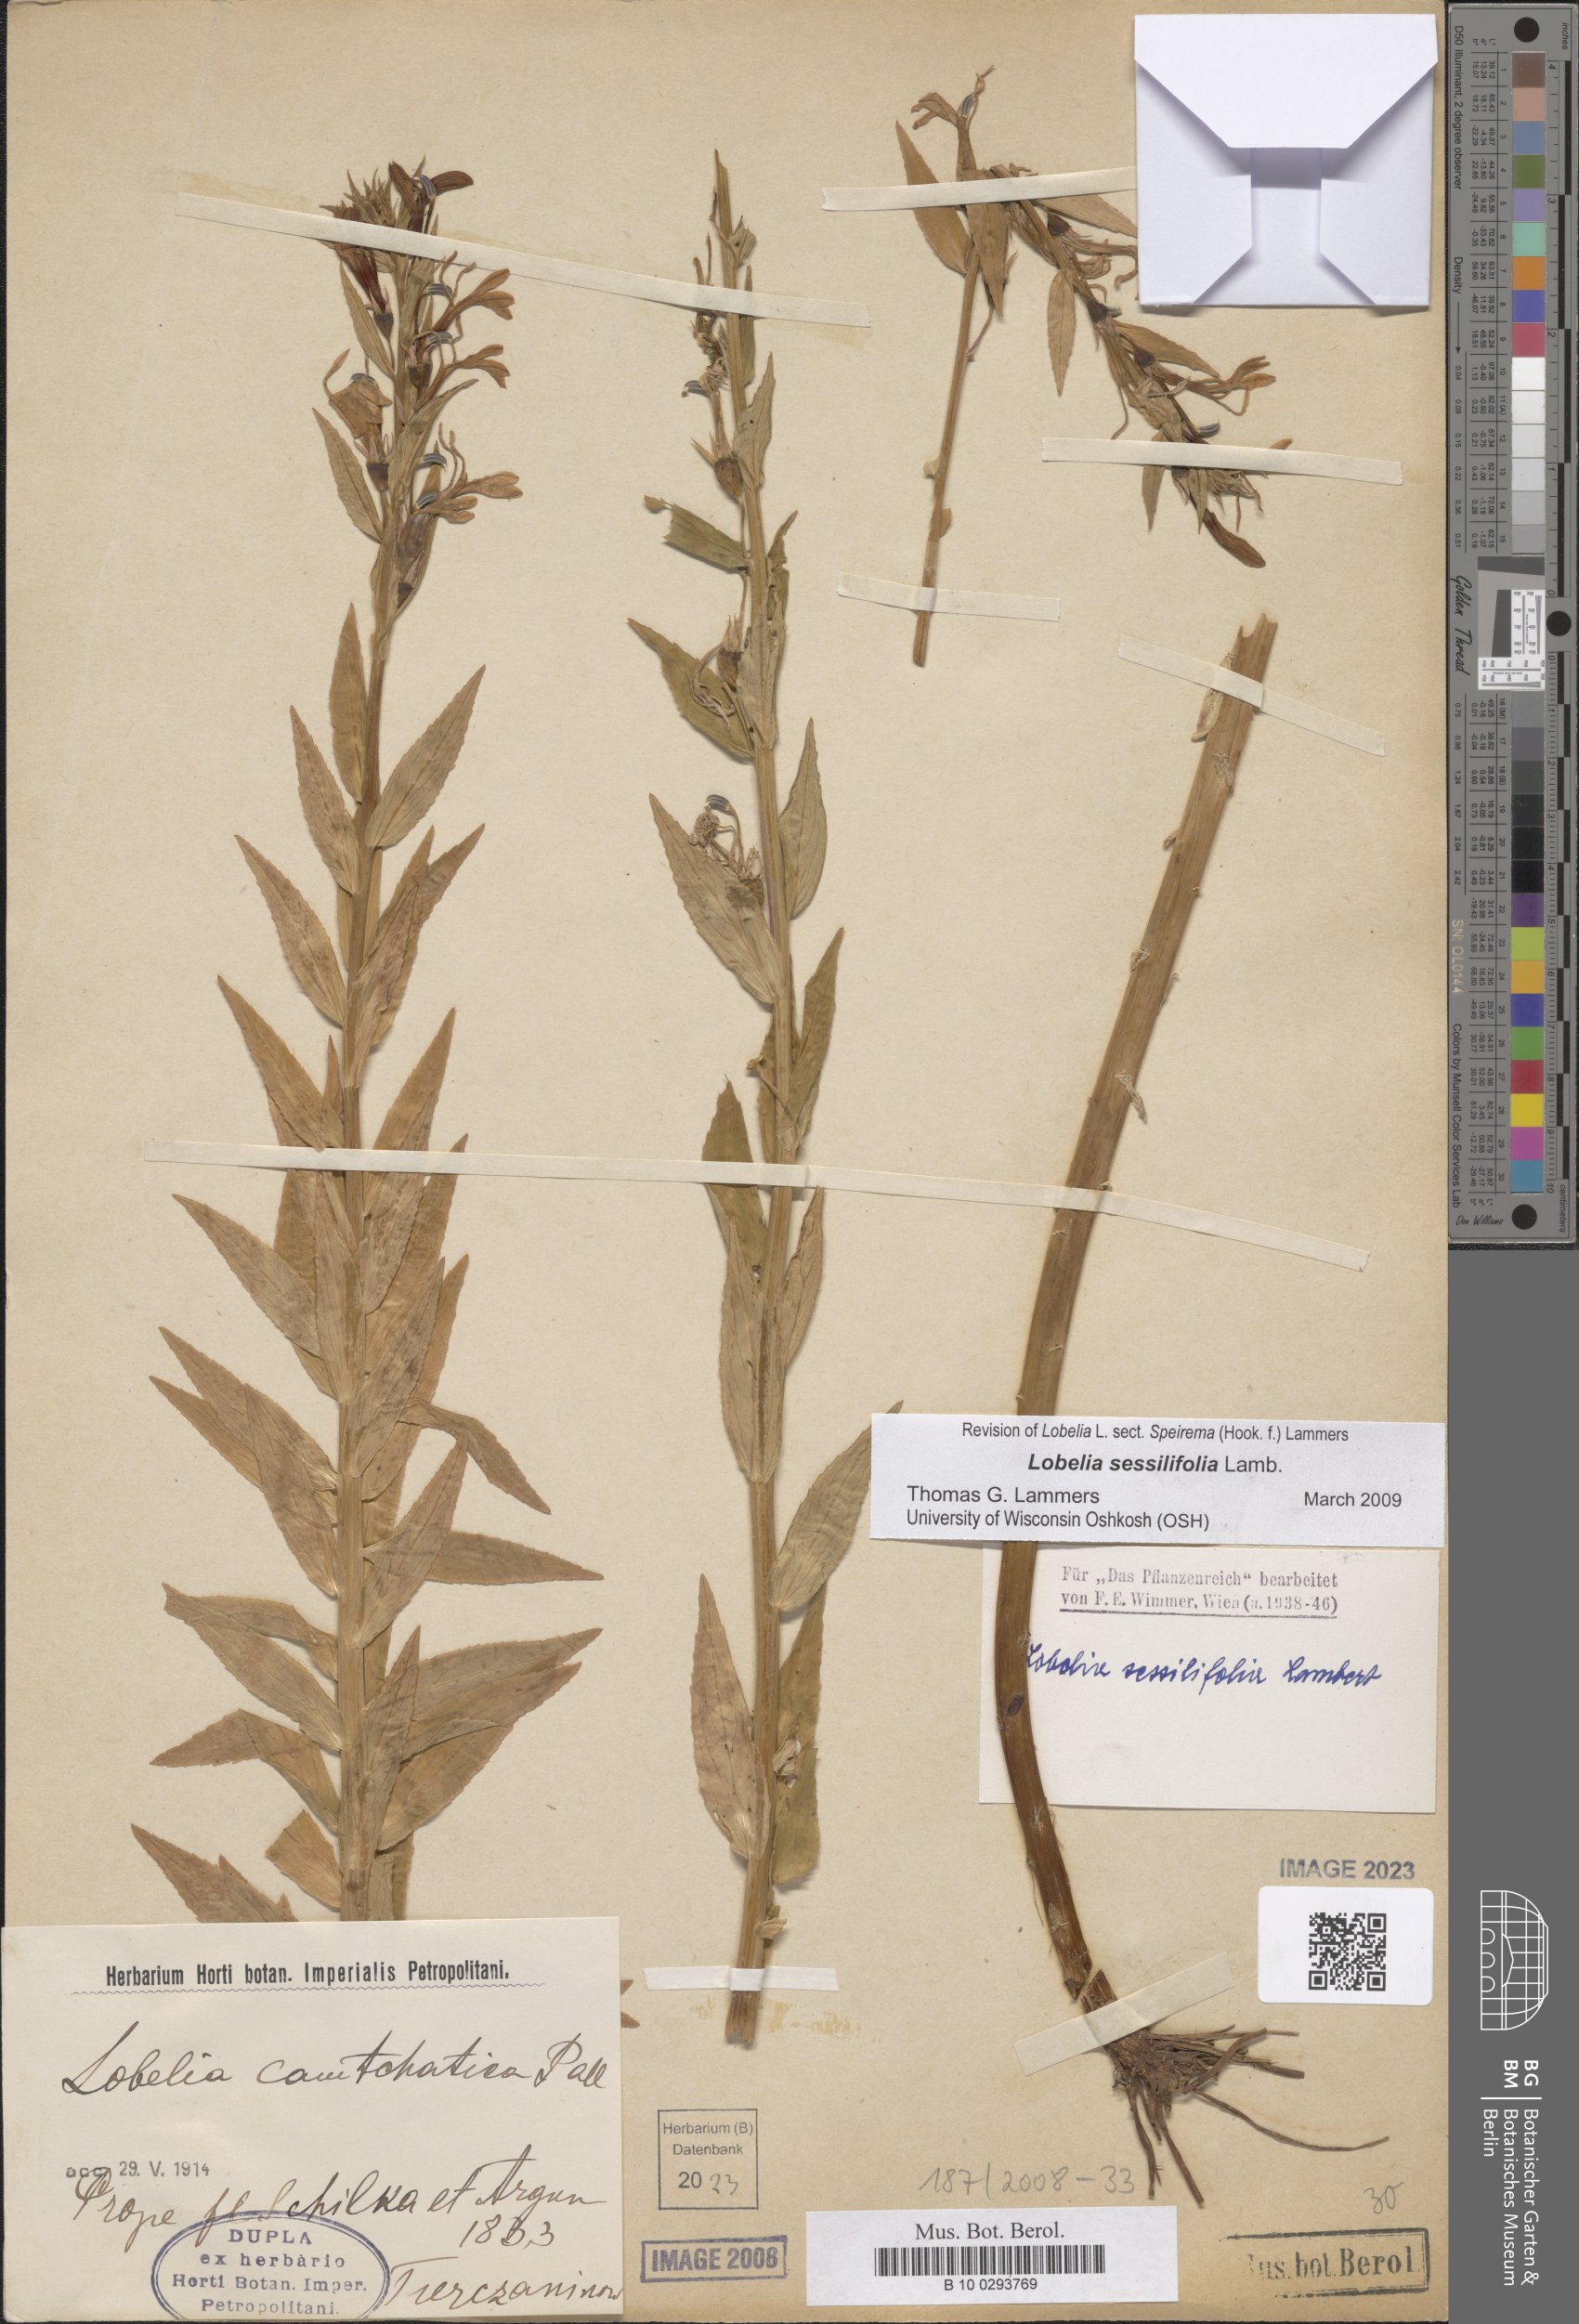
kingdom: Plantae
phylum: Tracheophyta
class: Magnoliopsida
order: Asterales
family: Campanulaceae
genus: Lobelia
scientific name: Lobelia sessilifolia
